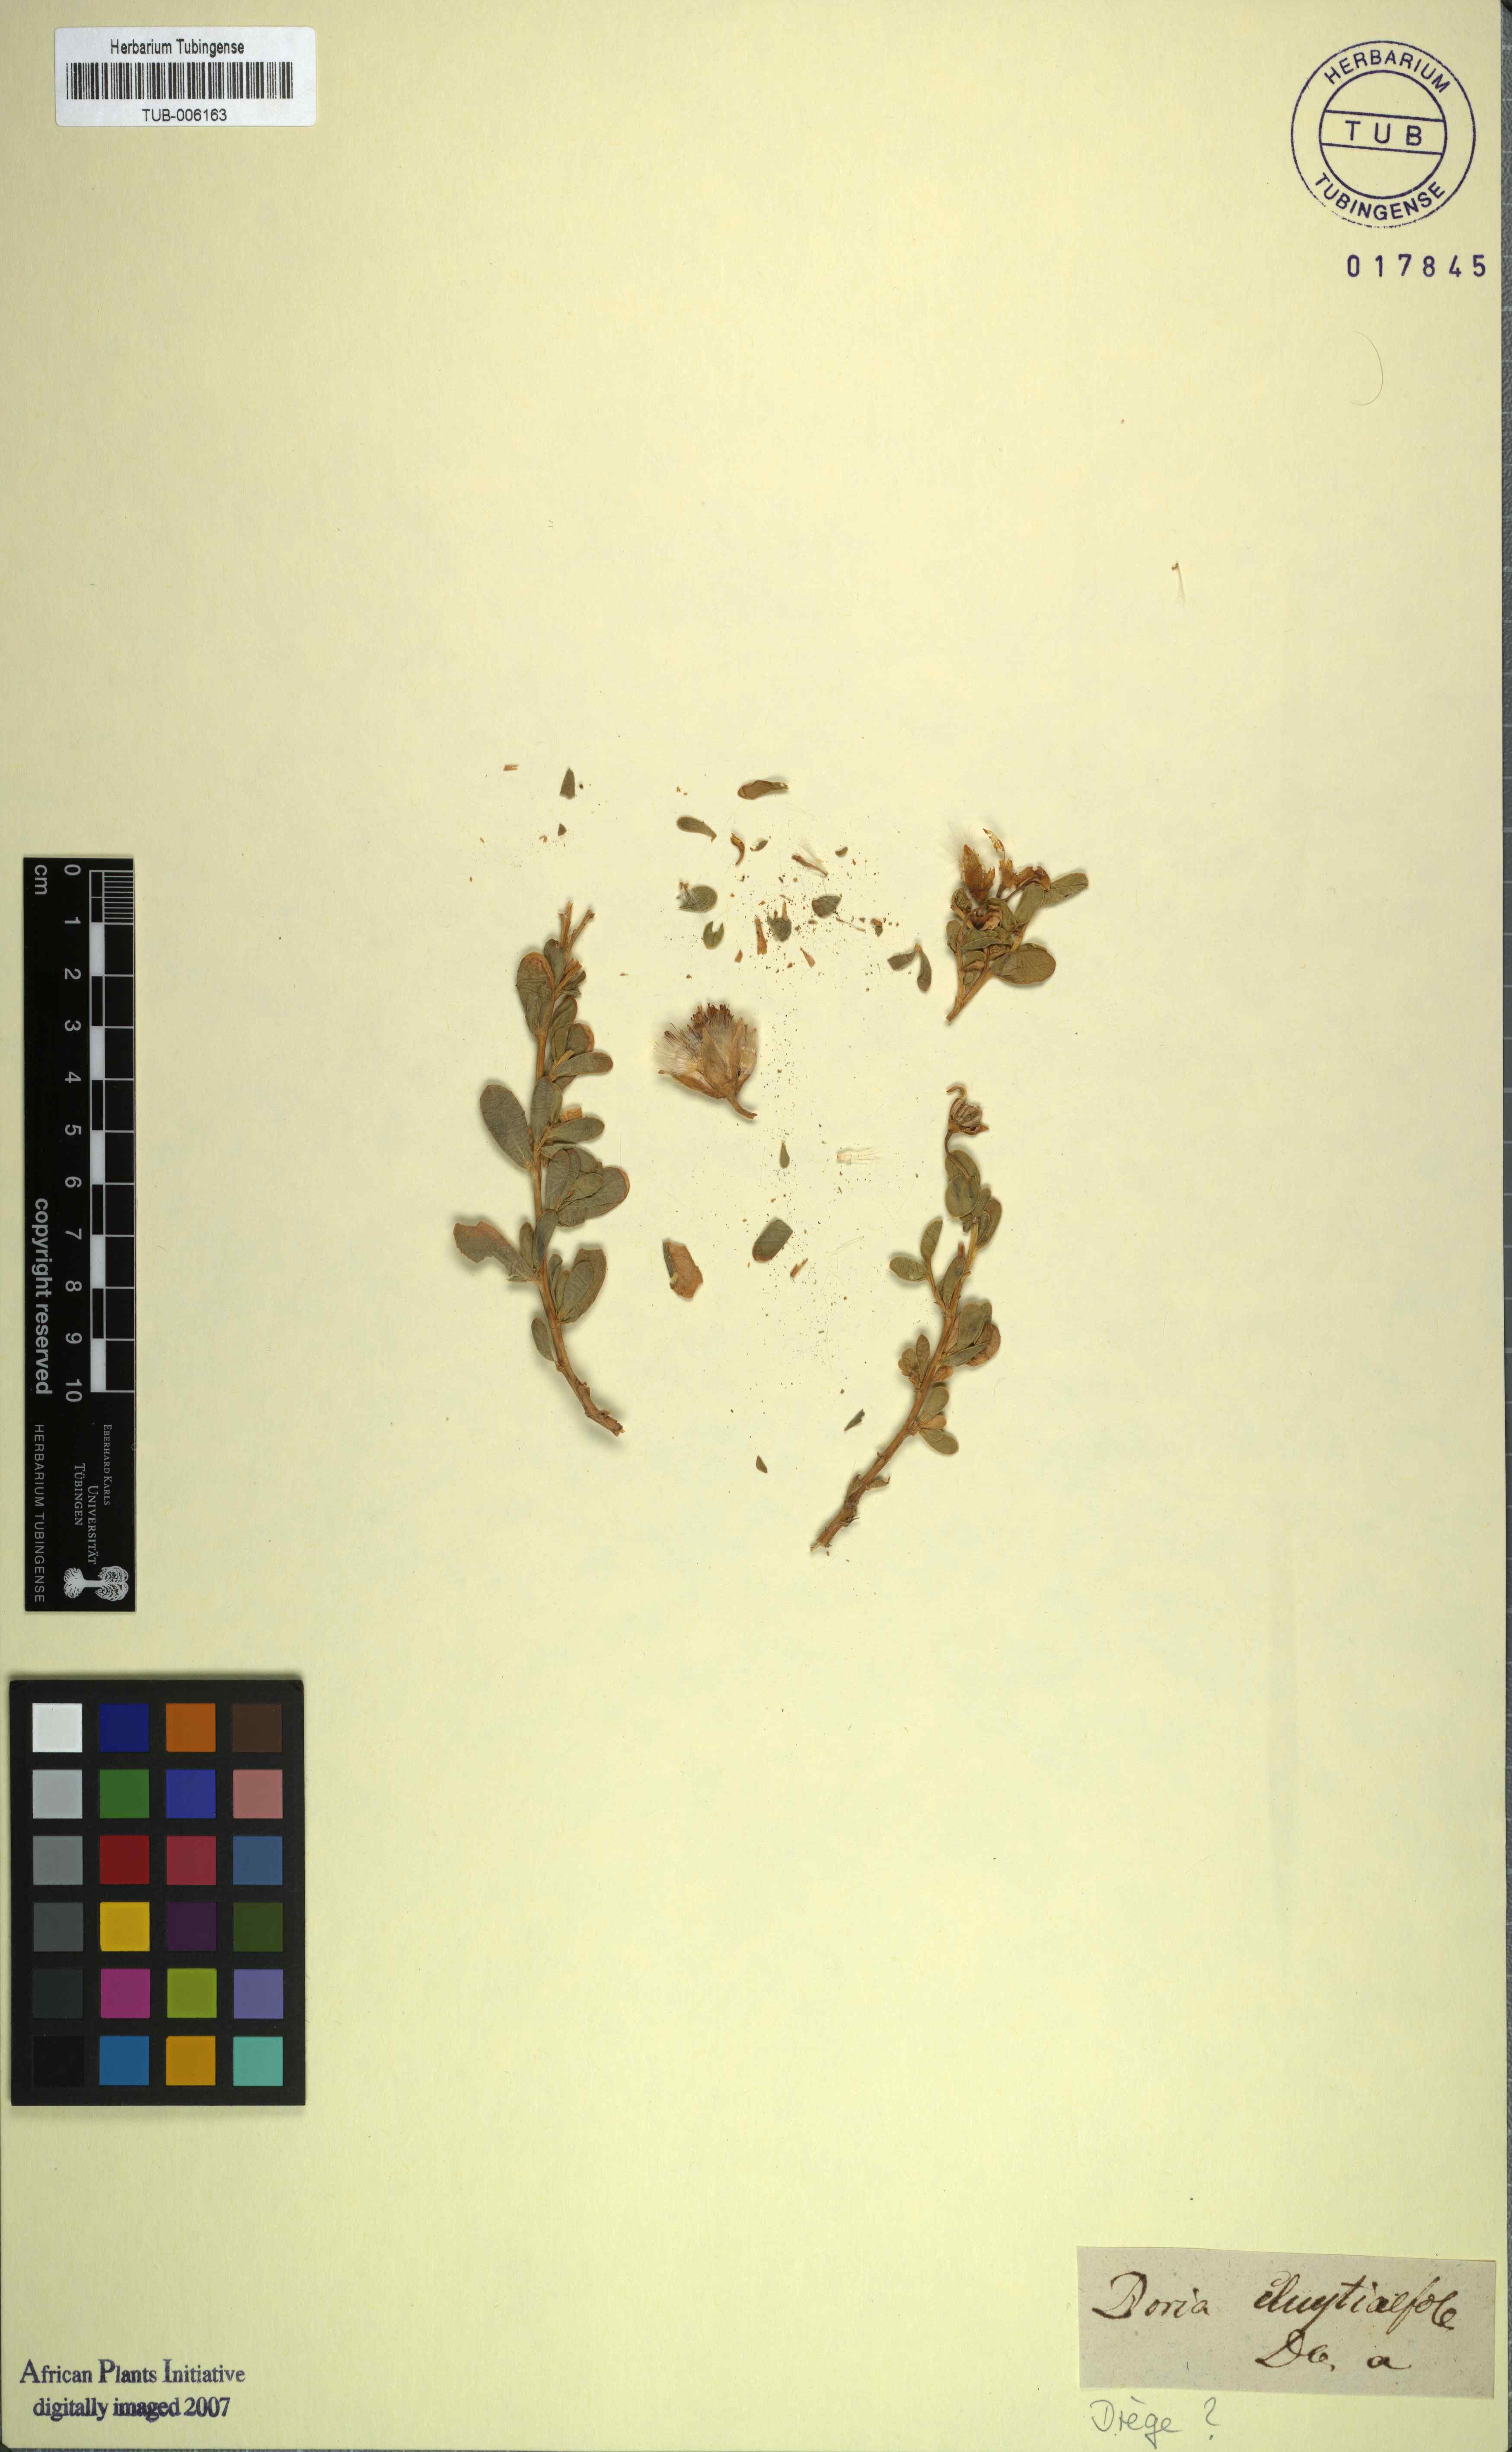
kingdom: Plantae
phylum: Tracheophyta
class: Magnoliopsida
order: Asterales
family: Asteraceae
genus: Hertia
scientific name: Hertia cluytiifolia
